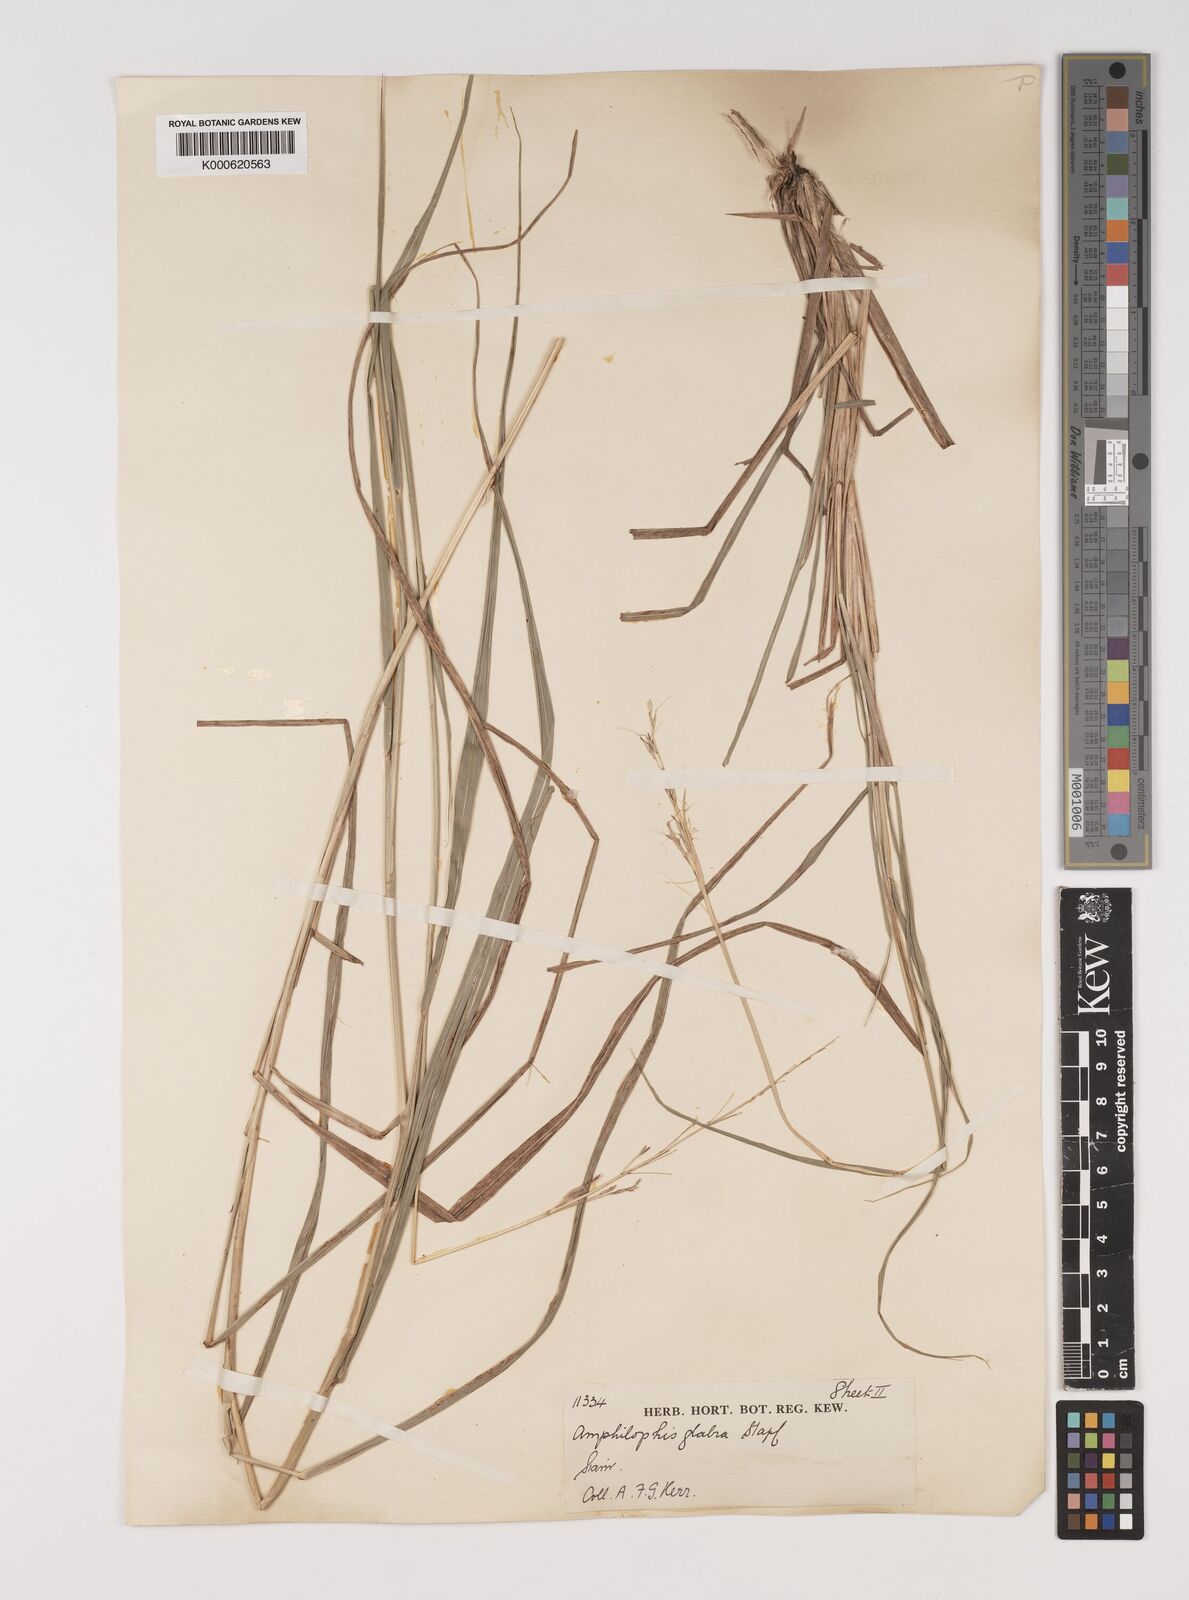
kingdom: Plantae
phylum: Tracheophyta
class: Liliopsida
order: Poales
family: Poaceae
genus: Bothriochloa
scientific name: Bothriochloa bladhii
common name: Caucasian bluestem
